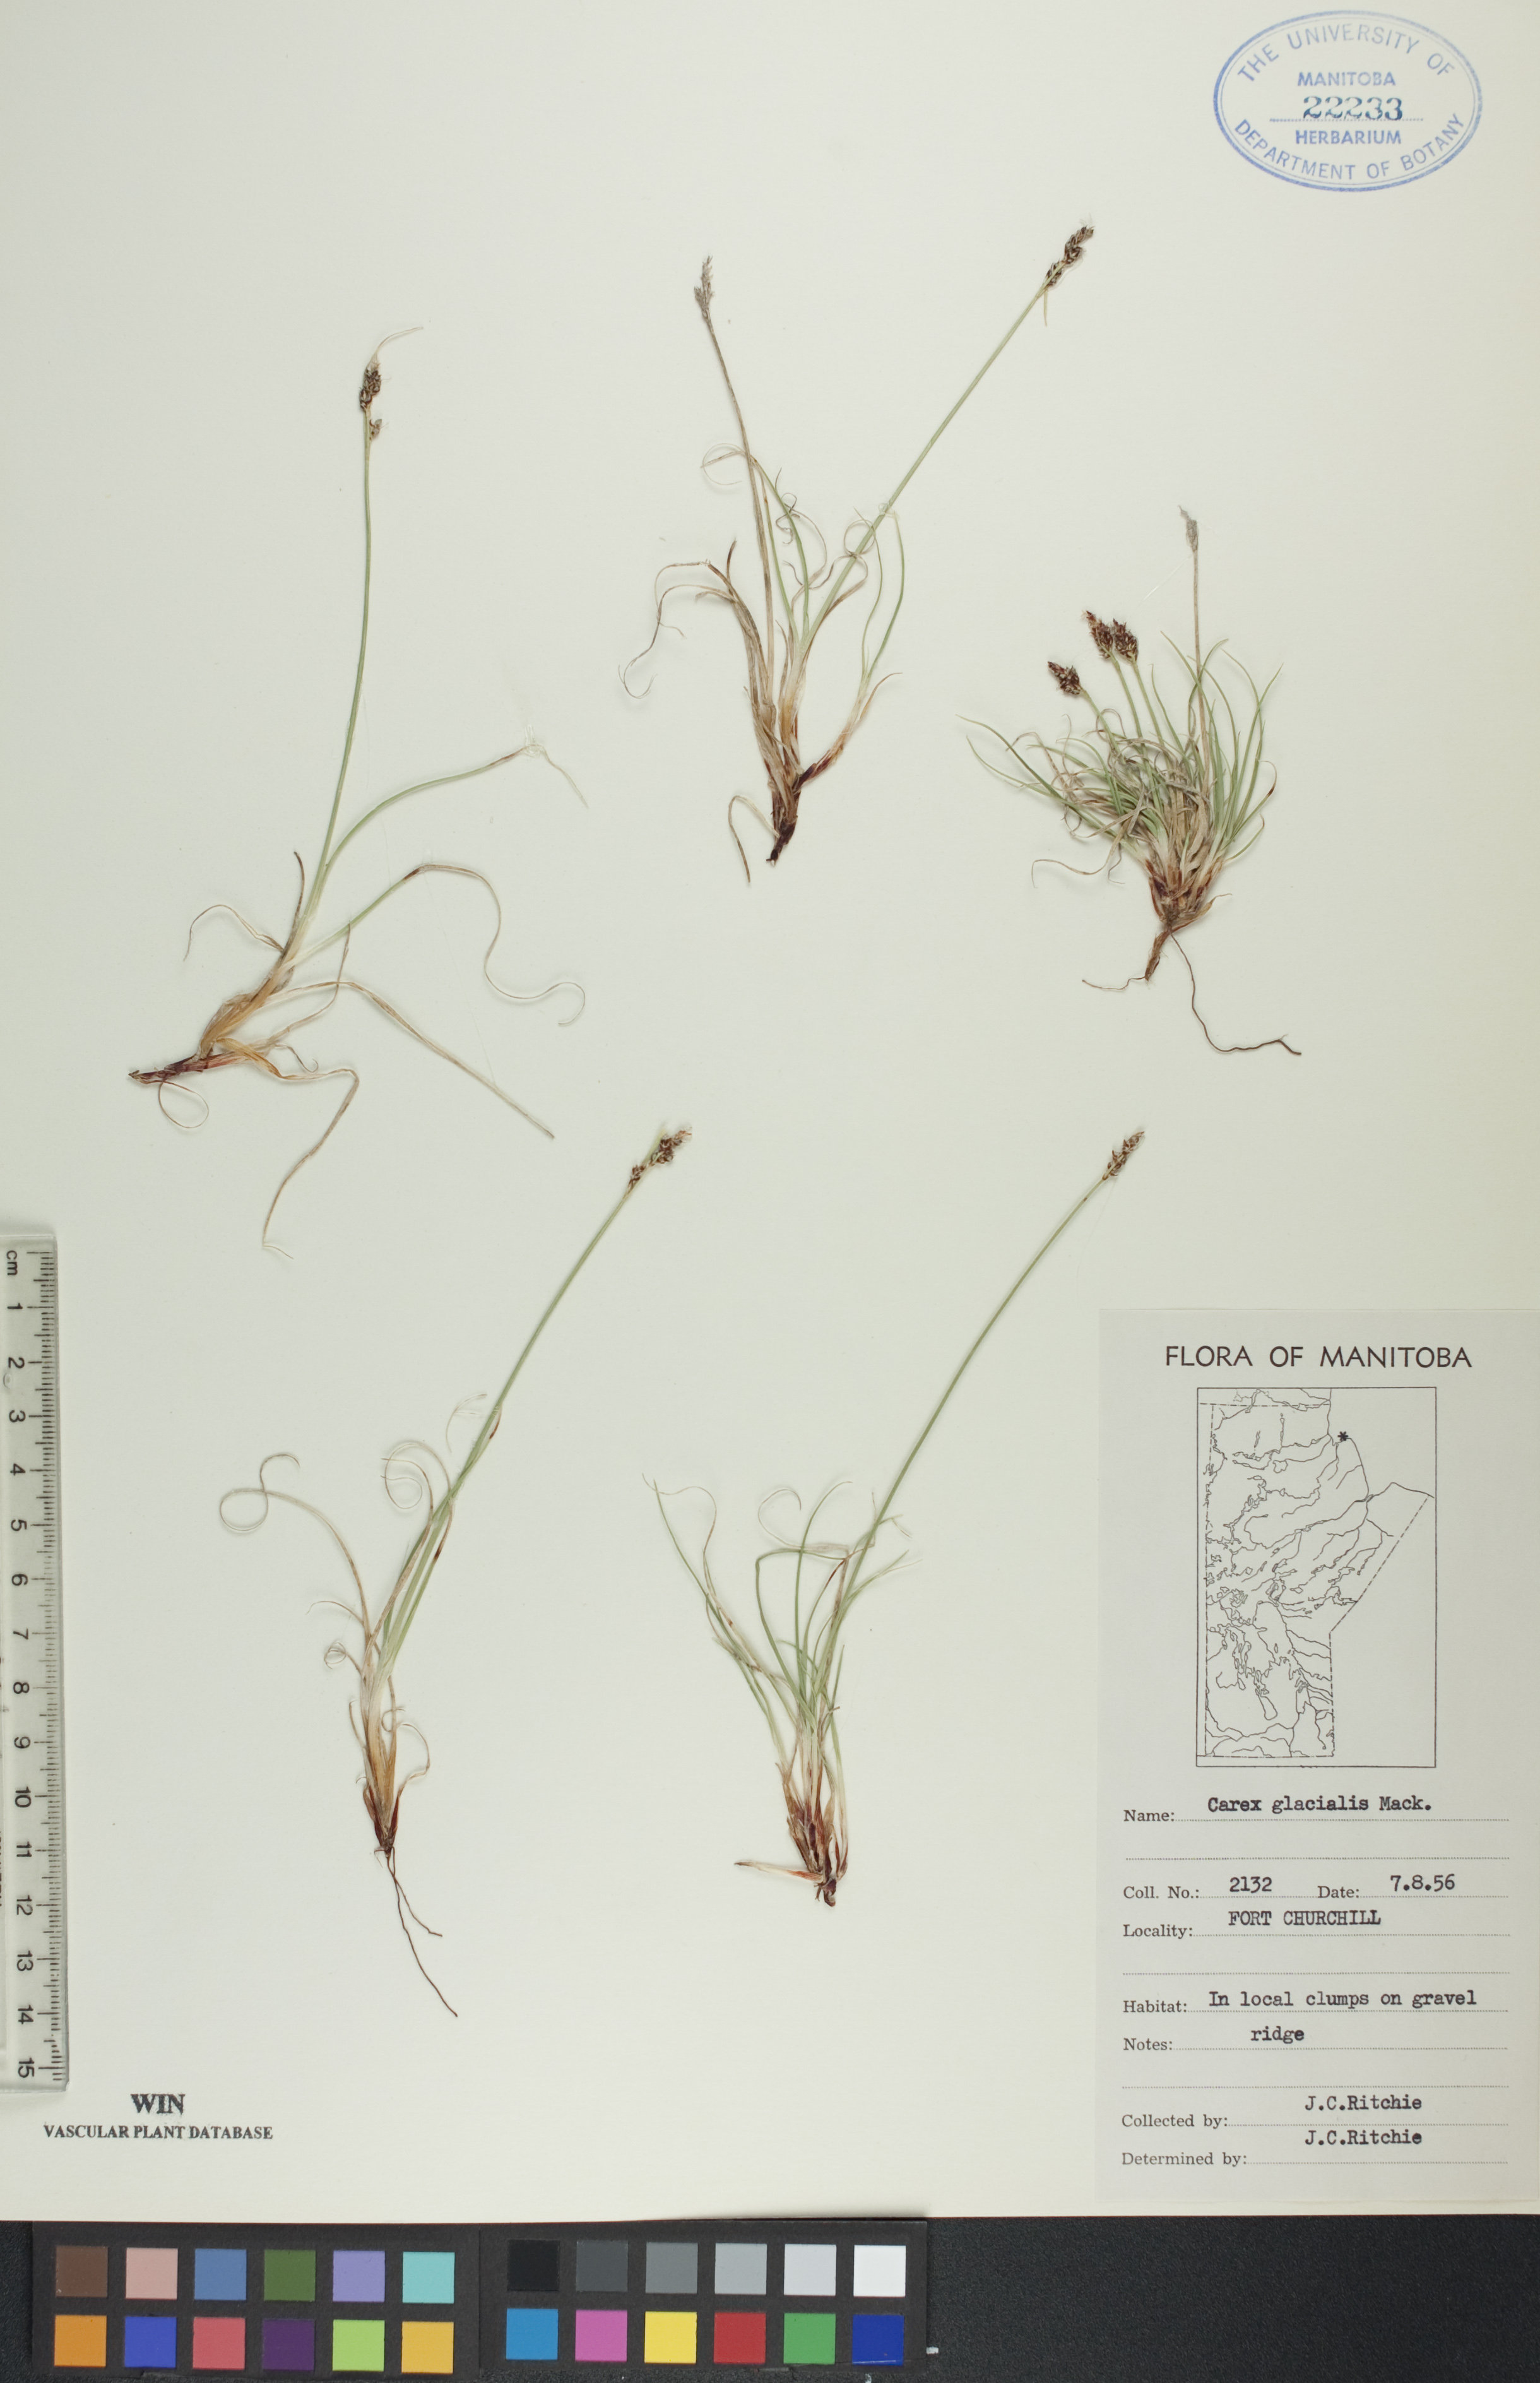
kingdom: Plantae
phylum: Tracheophyta
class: Liliopsida
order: Poales
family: Cyperaceae
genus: Carex
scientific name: Carex glacialis
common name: Newfoundland sedge
